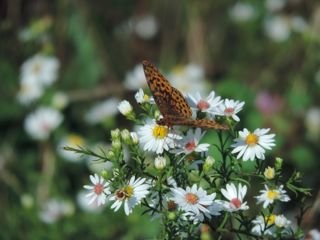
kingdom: Animalia
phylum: Arthropoda
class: Insecta
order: Lepidoptera
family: Nymphalidae
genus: Clossiana
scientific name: Clossiana toddi
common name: Meadow Fritillary
